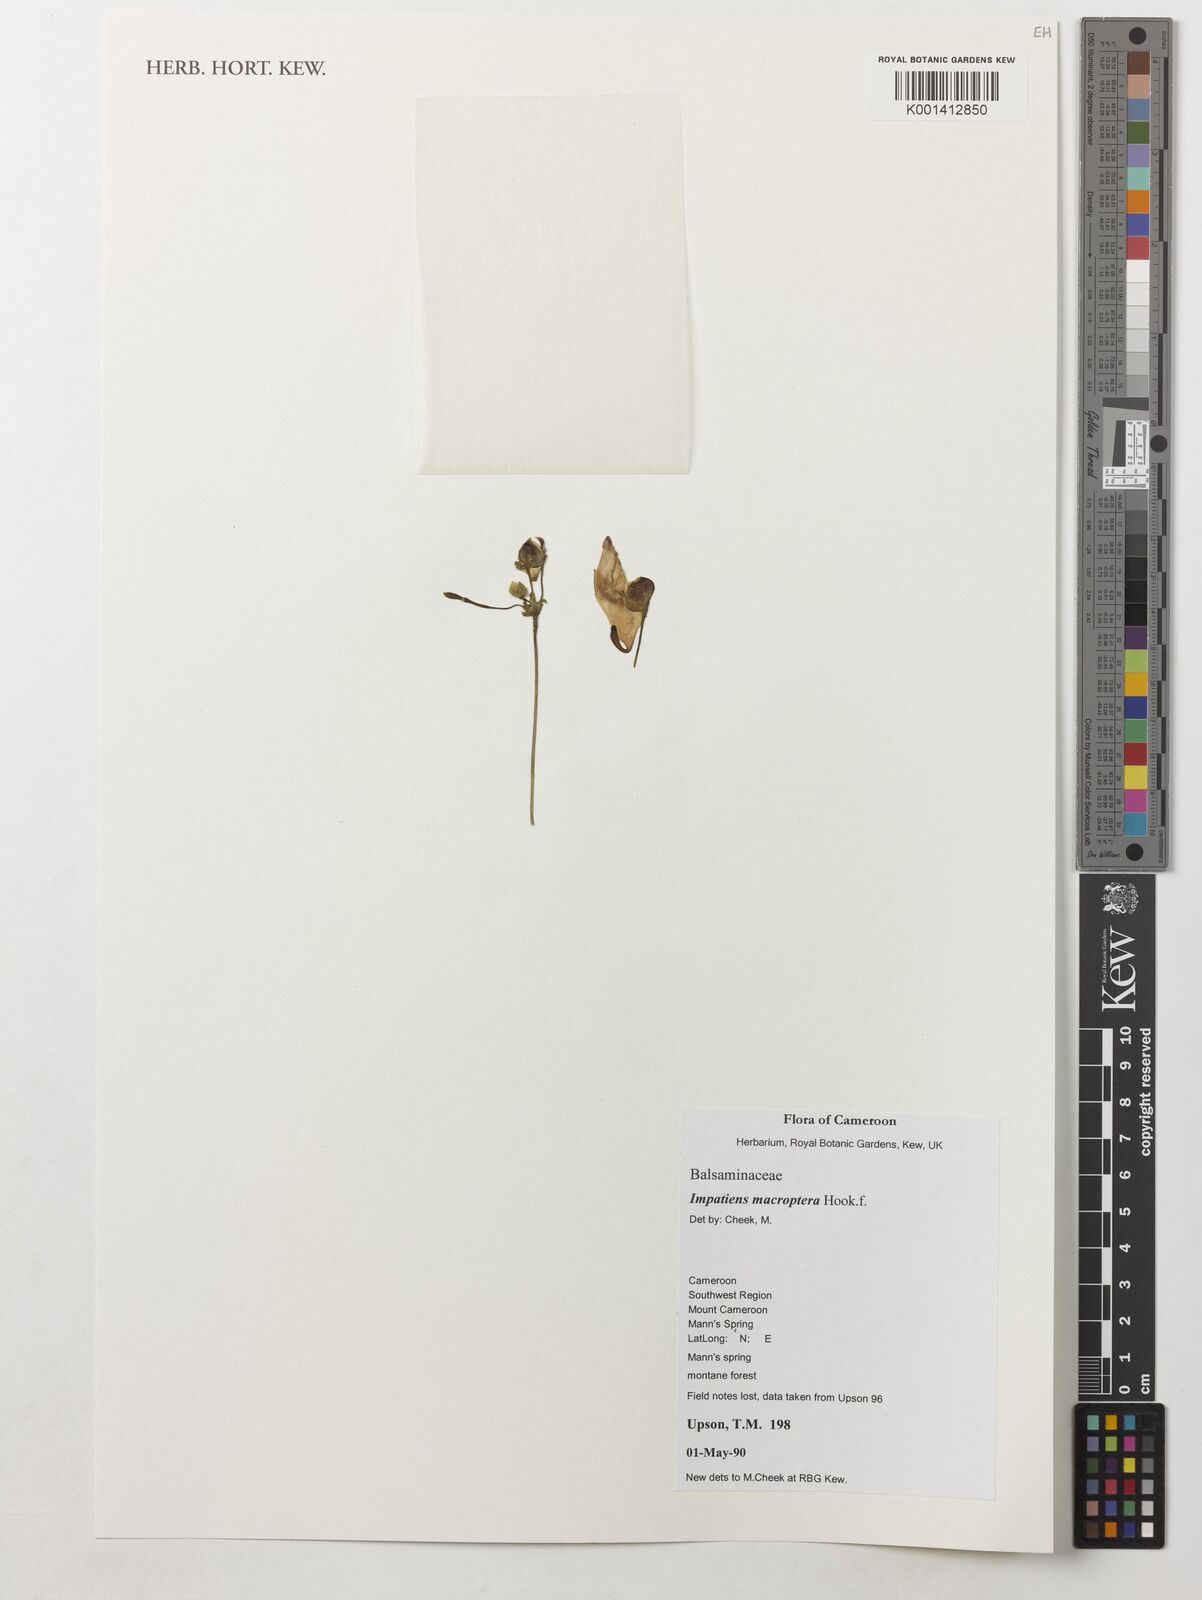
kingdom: Plantae
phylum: Tracheophyta
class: Magnoliopsida
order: Ericales
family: Balsaminaceae
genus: Impatiens
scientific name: Impatiens macroptera
